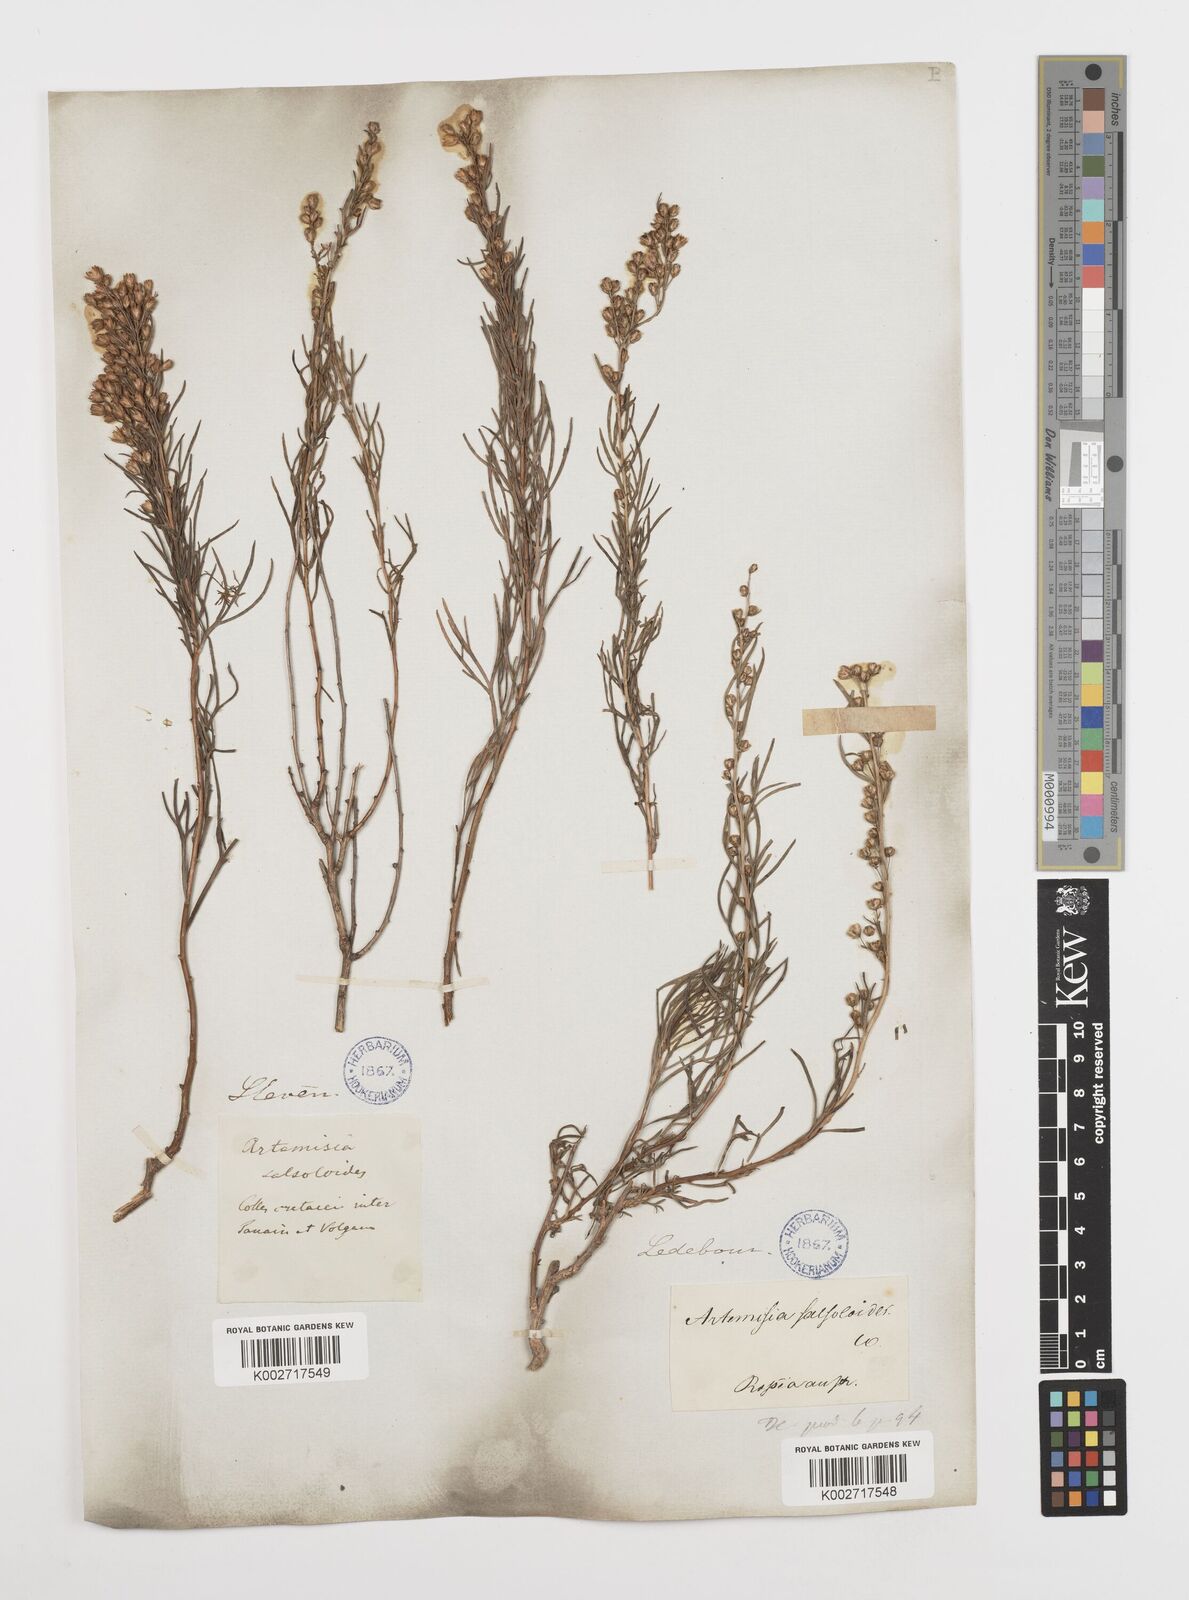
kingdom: Plantae
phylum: Tracheophyta
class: Magnoliopsida
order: Asterales
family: Asteraceae
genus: Artemisia
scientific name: Artemisia salsoloides
